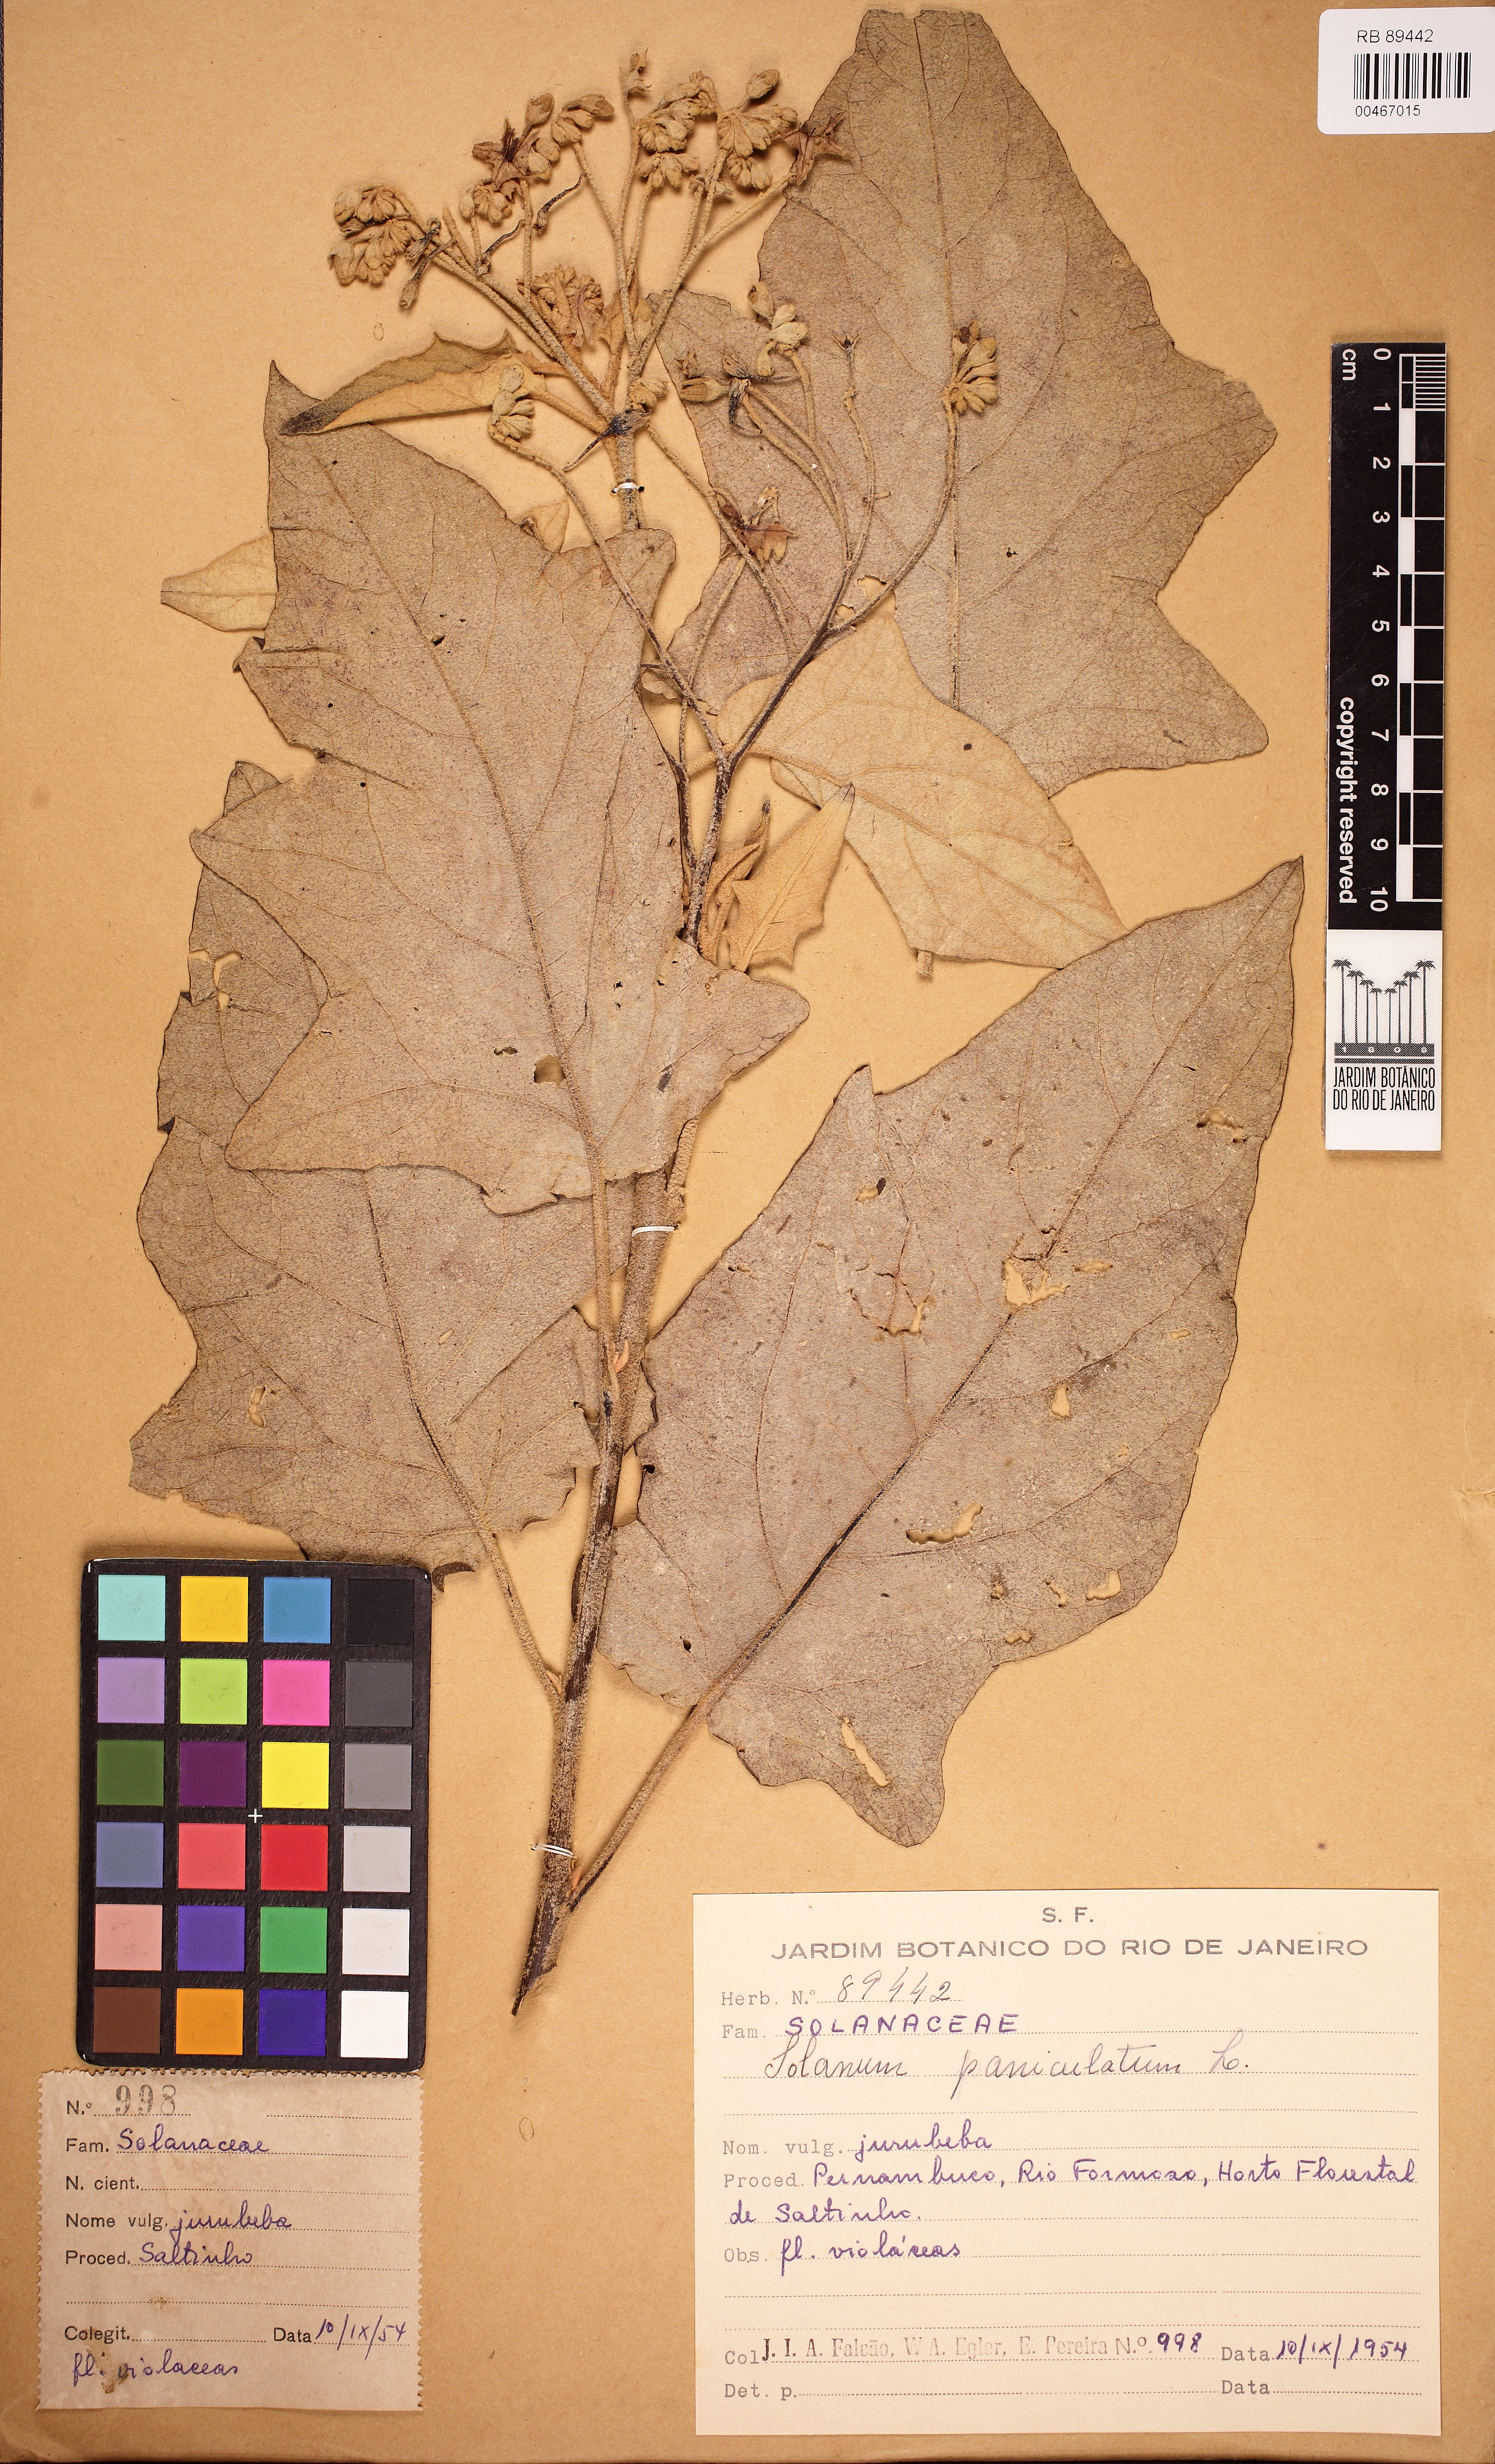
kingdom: Plantae
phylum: Tracheophyta
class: Magnoliopsida
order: Solanales
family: Solanaceae
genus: Solanum
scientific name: Solanum paniculatum
